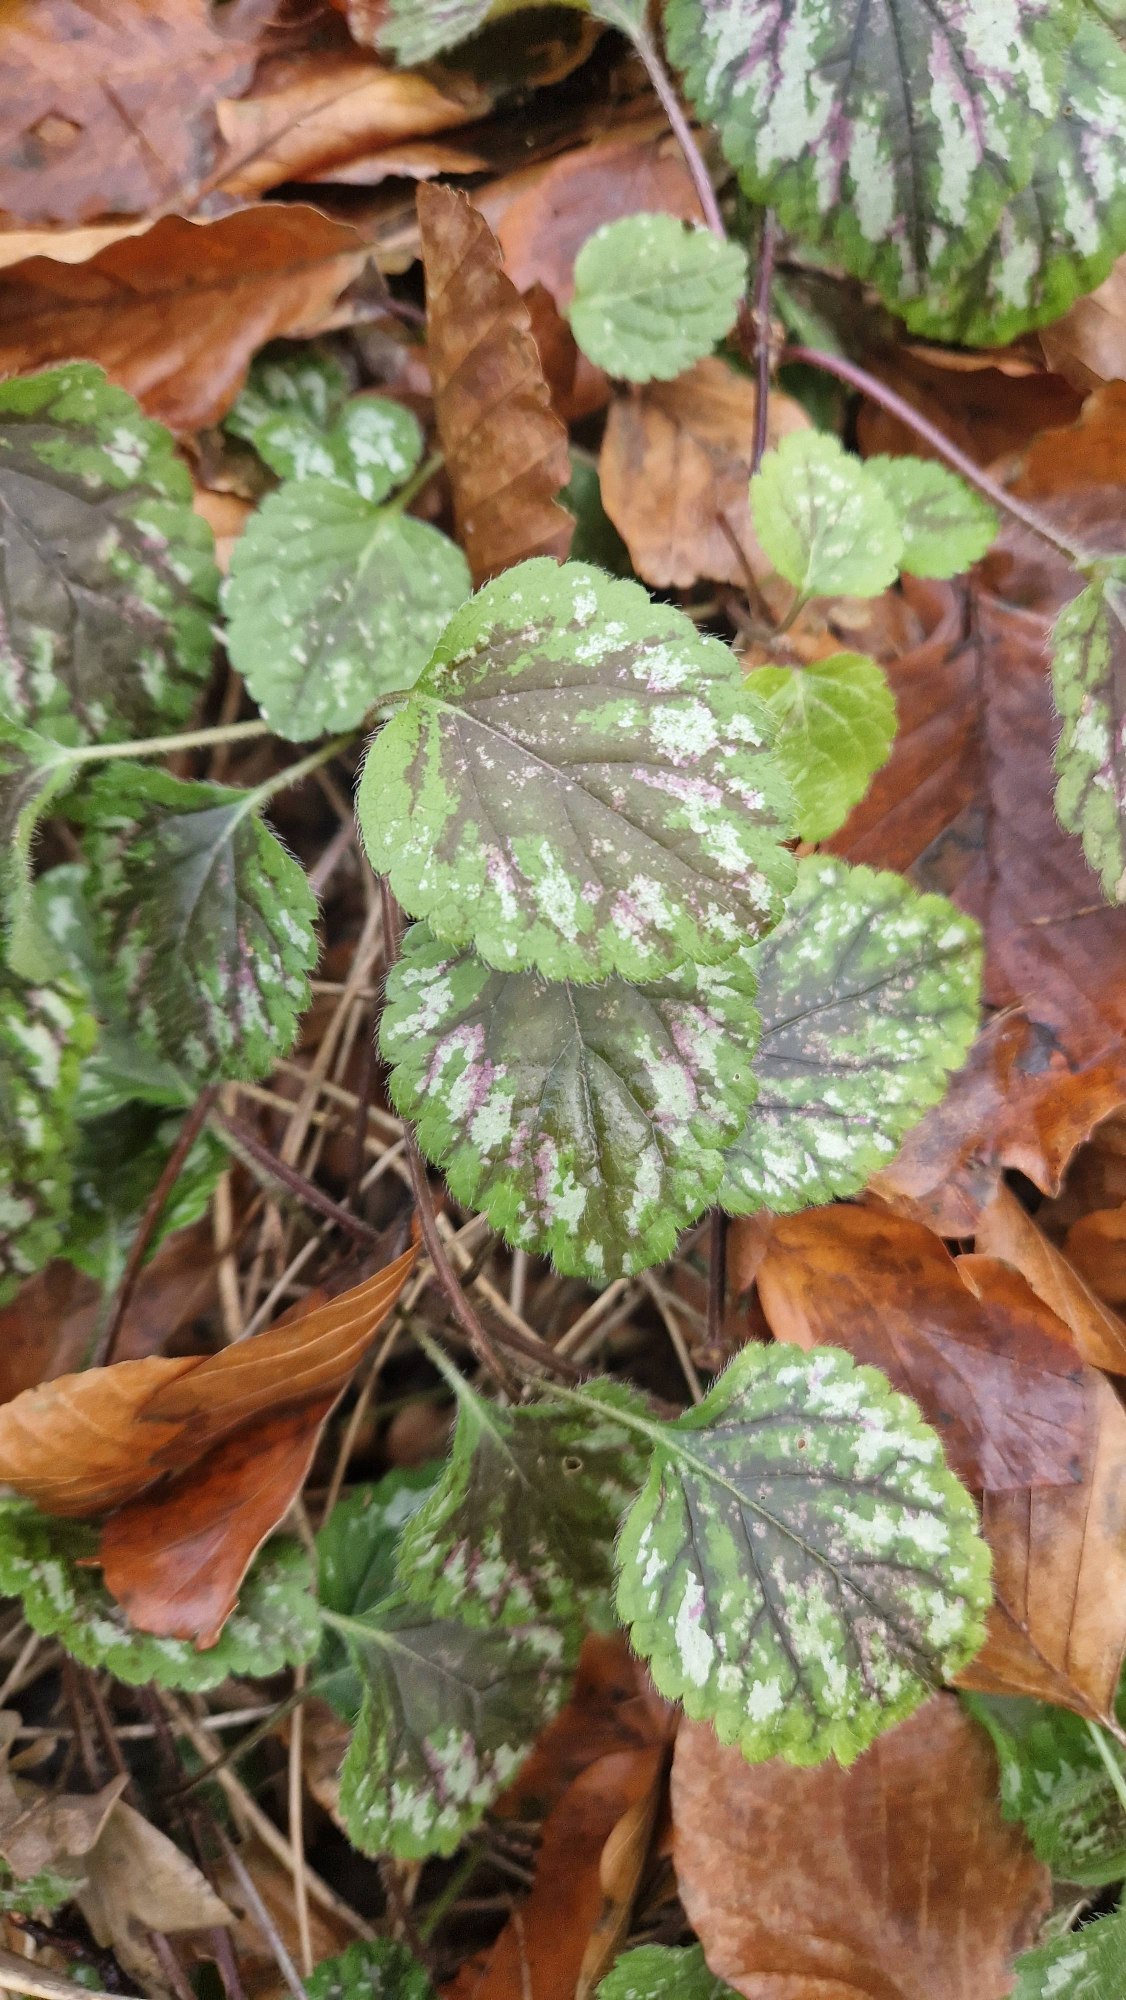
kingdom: Plantae
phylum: Tracheophyta
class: Magnoliopsida
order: Lamiales
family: Lamiaceae
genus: Lamium
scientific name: Lamium galeobdolon
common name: Almindelig guldnælde
